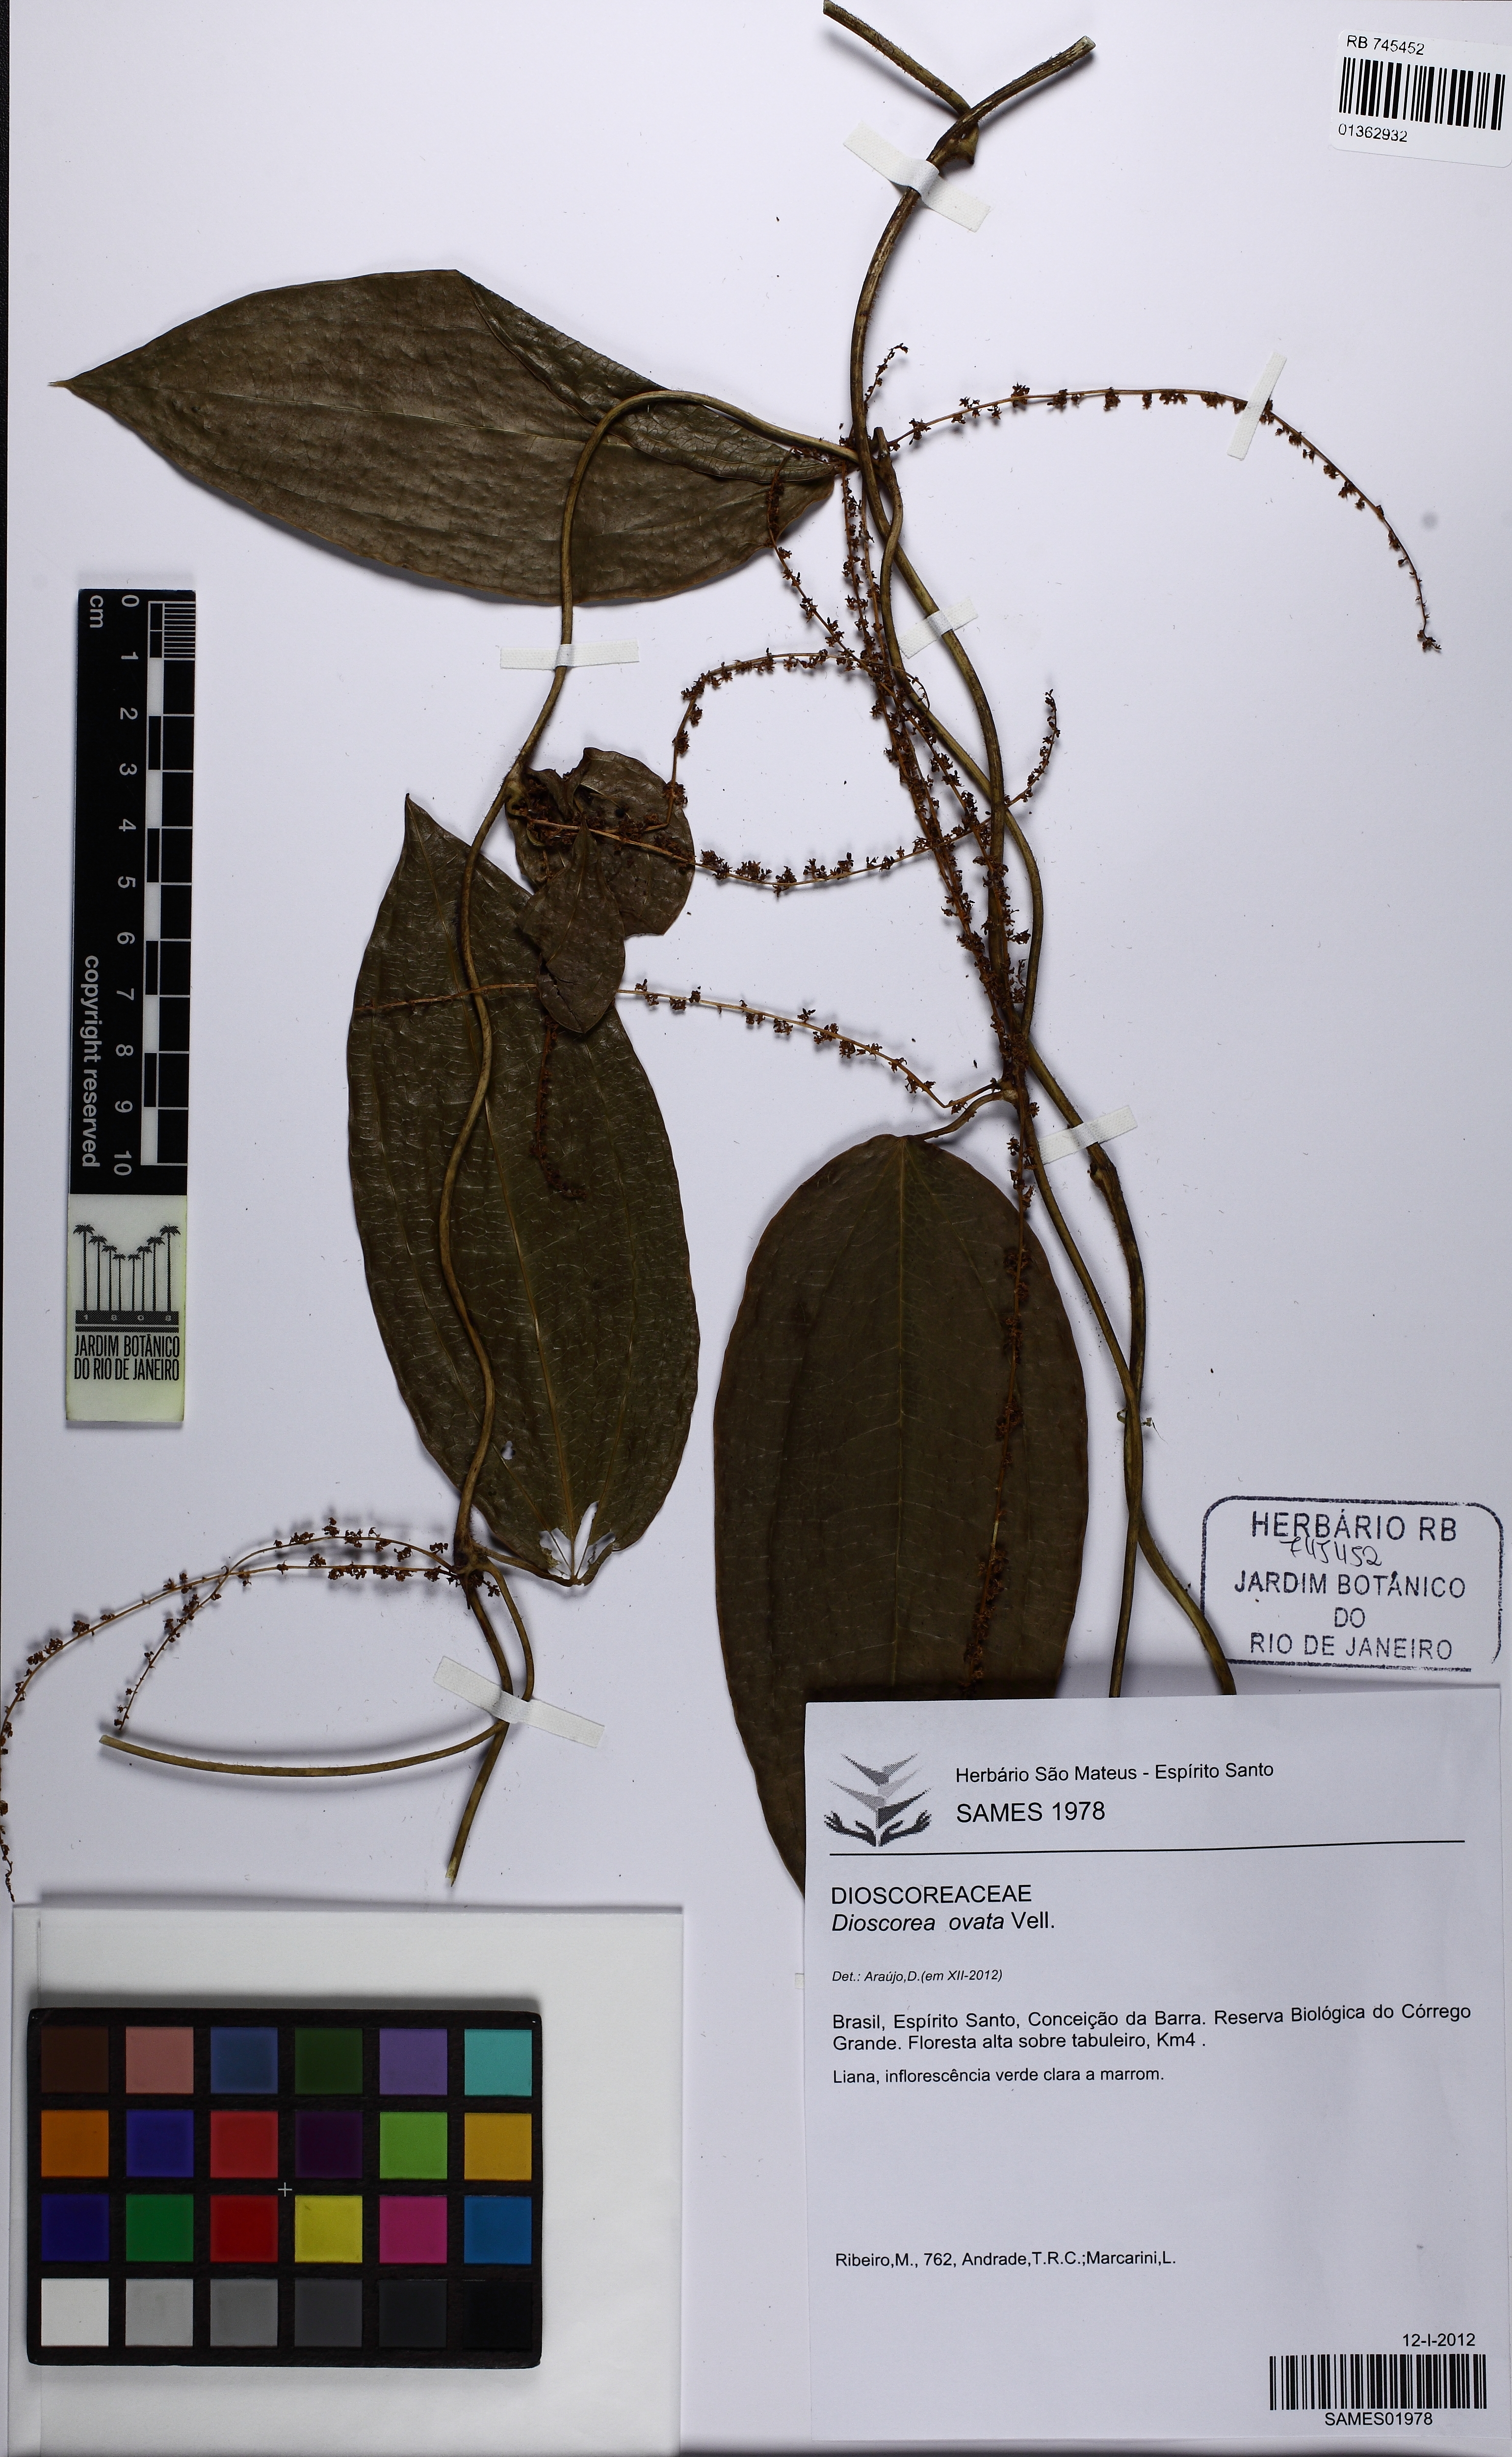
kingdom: Plantae
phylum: Tracheophyta
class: Liliopsida
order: Dioscoreales
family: Dioscoreaceae
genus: Dioscorea
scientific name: Dioscorea ovata
